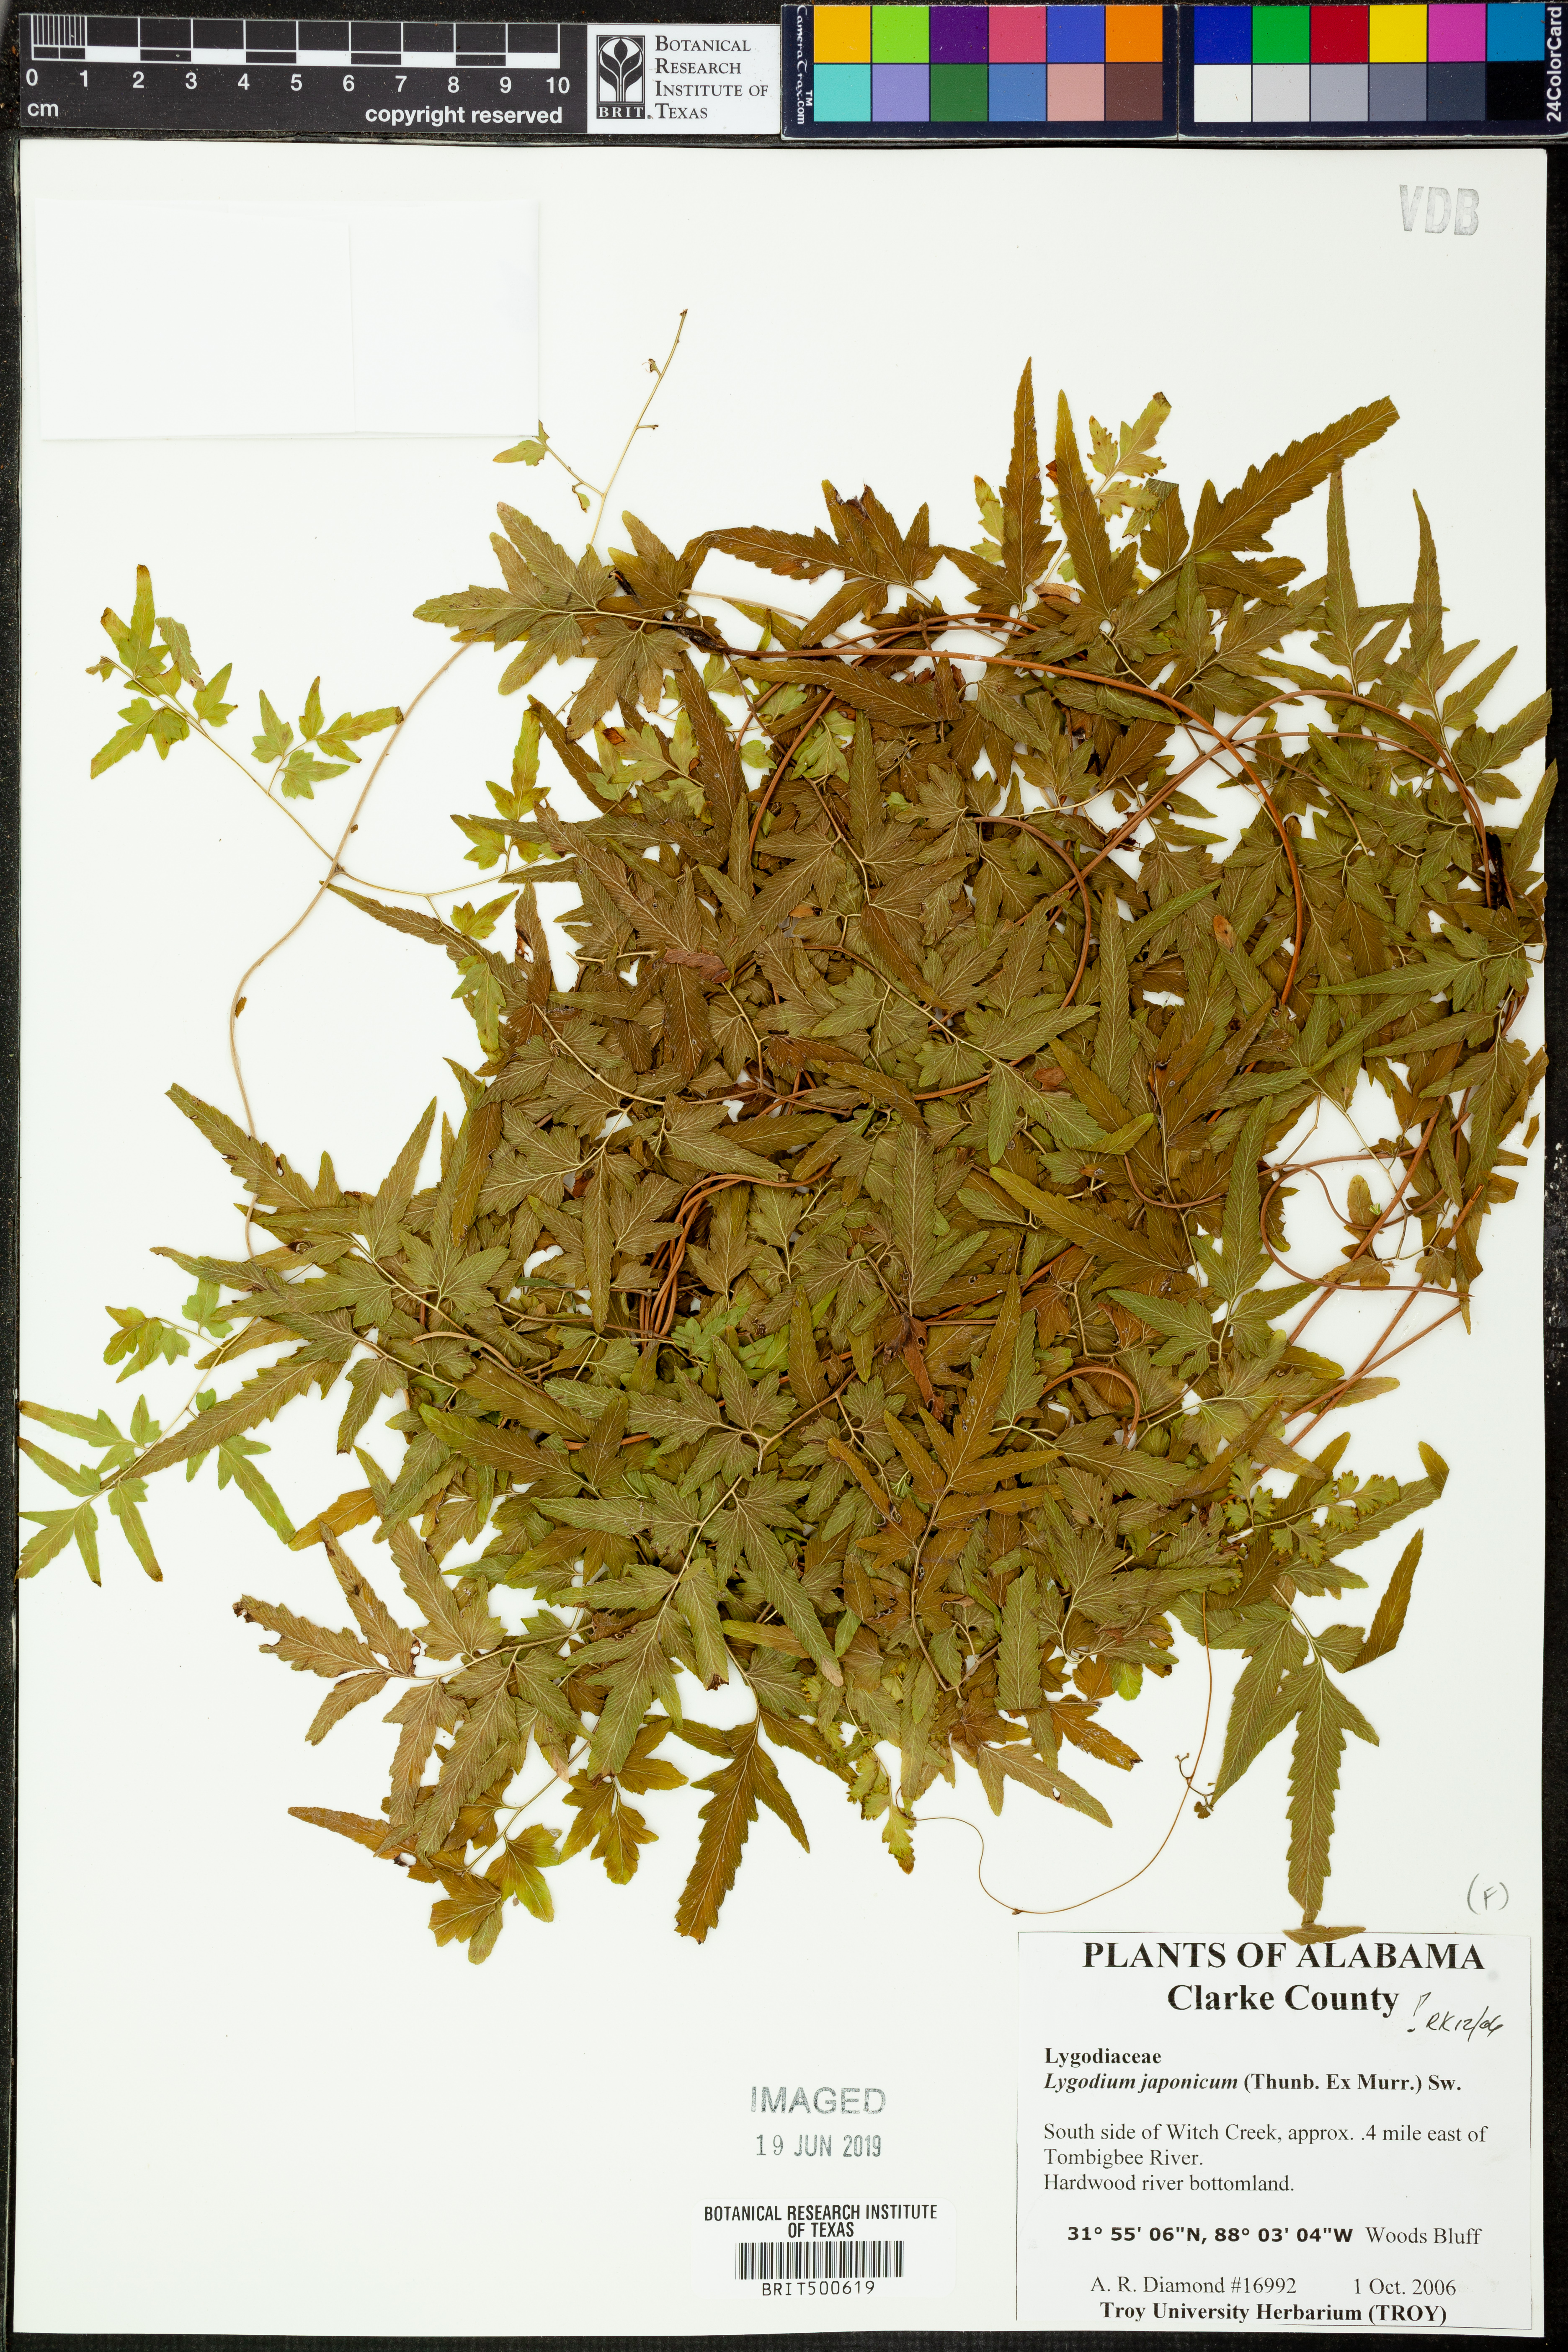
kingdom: Plantae
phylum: Tracheophyta
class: Polypodiopsida
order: Schizaeales
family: Lygodiaceae
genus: Lygodium
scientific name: Lygodium japonicum
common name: Japanese climbing fern
